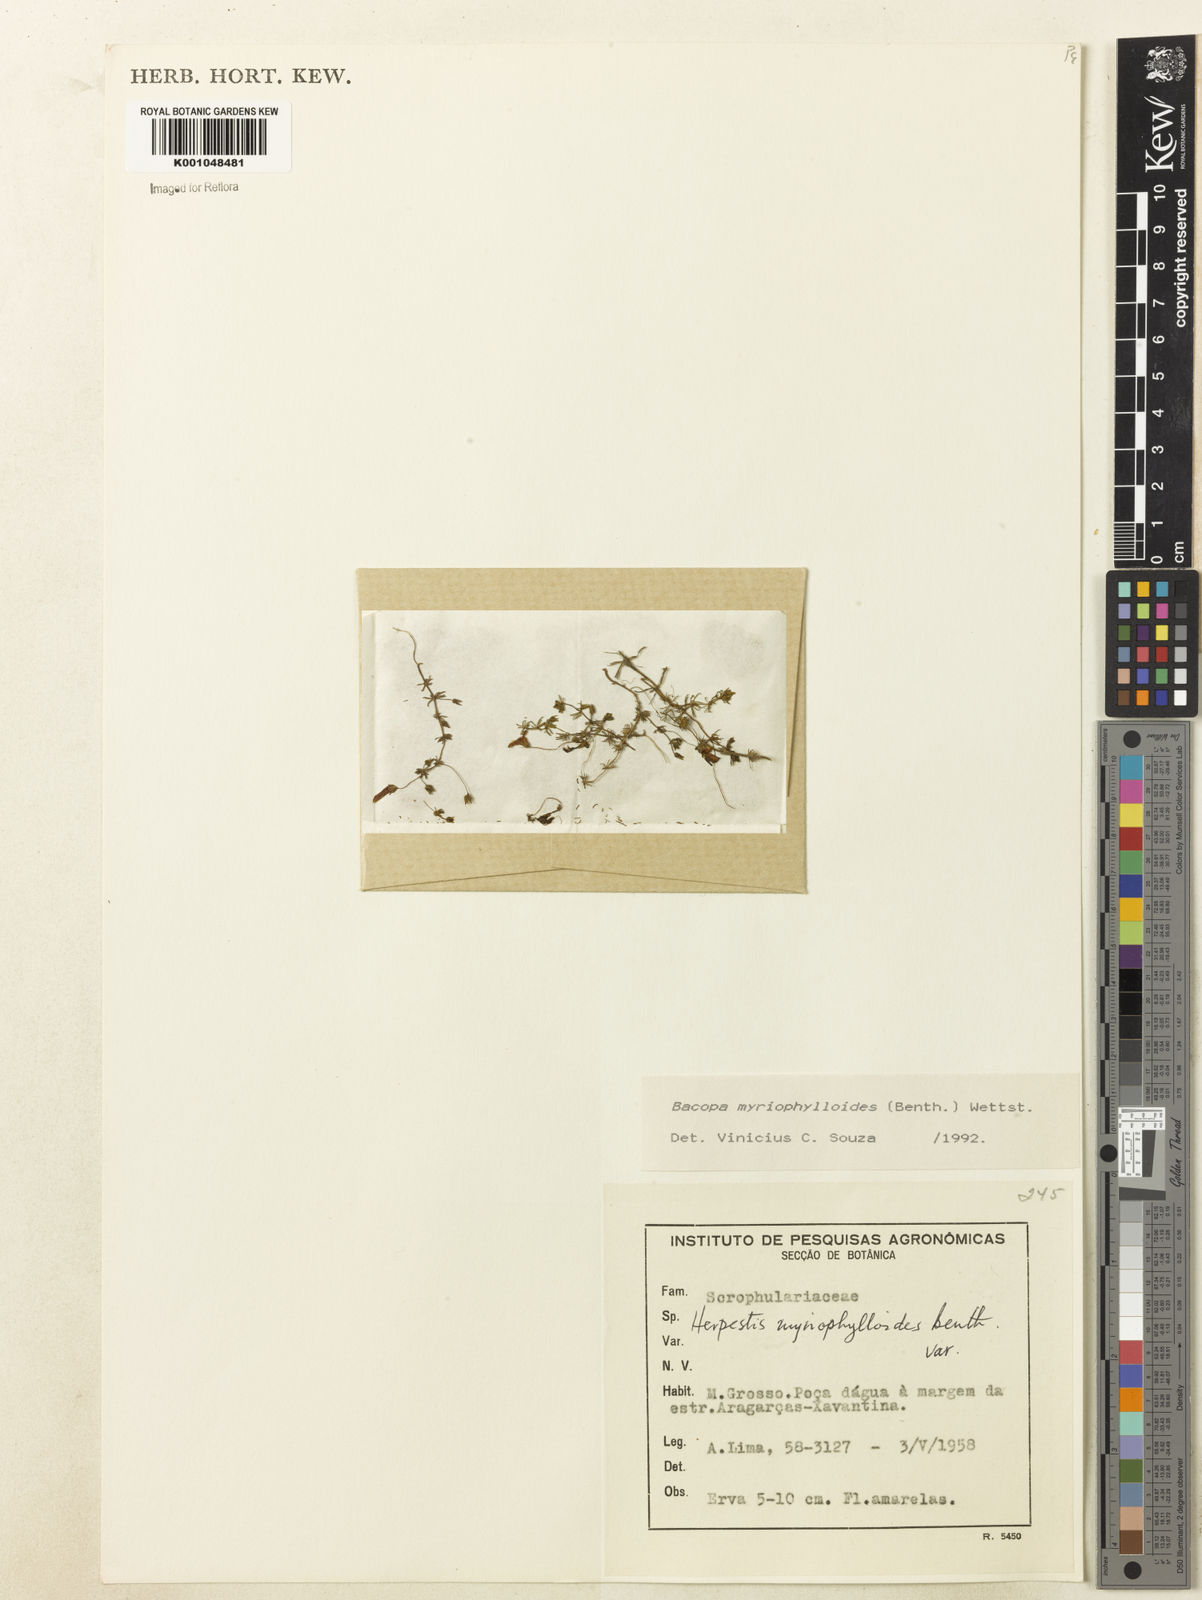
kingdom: Plantae
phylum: Tracheophyta
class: Magnoliopsida
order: Lamiales
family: Plantaginaceae
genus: Bacopa
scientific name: Bacopa myriophylloides
